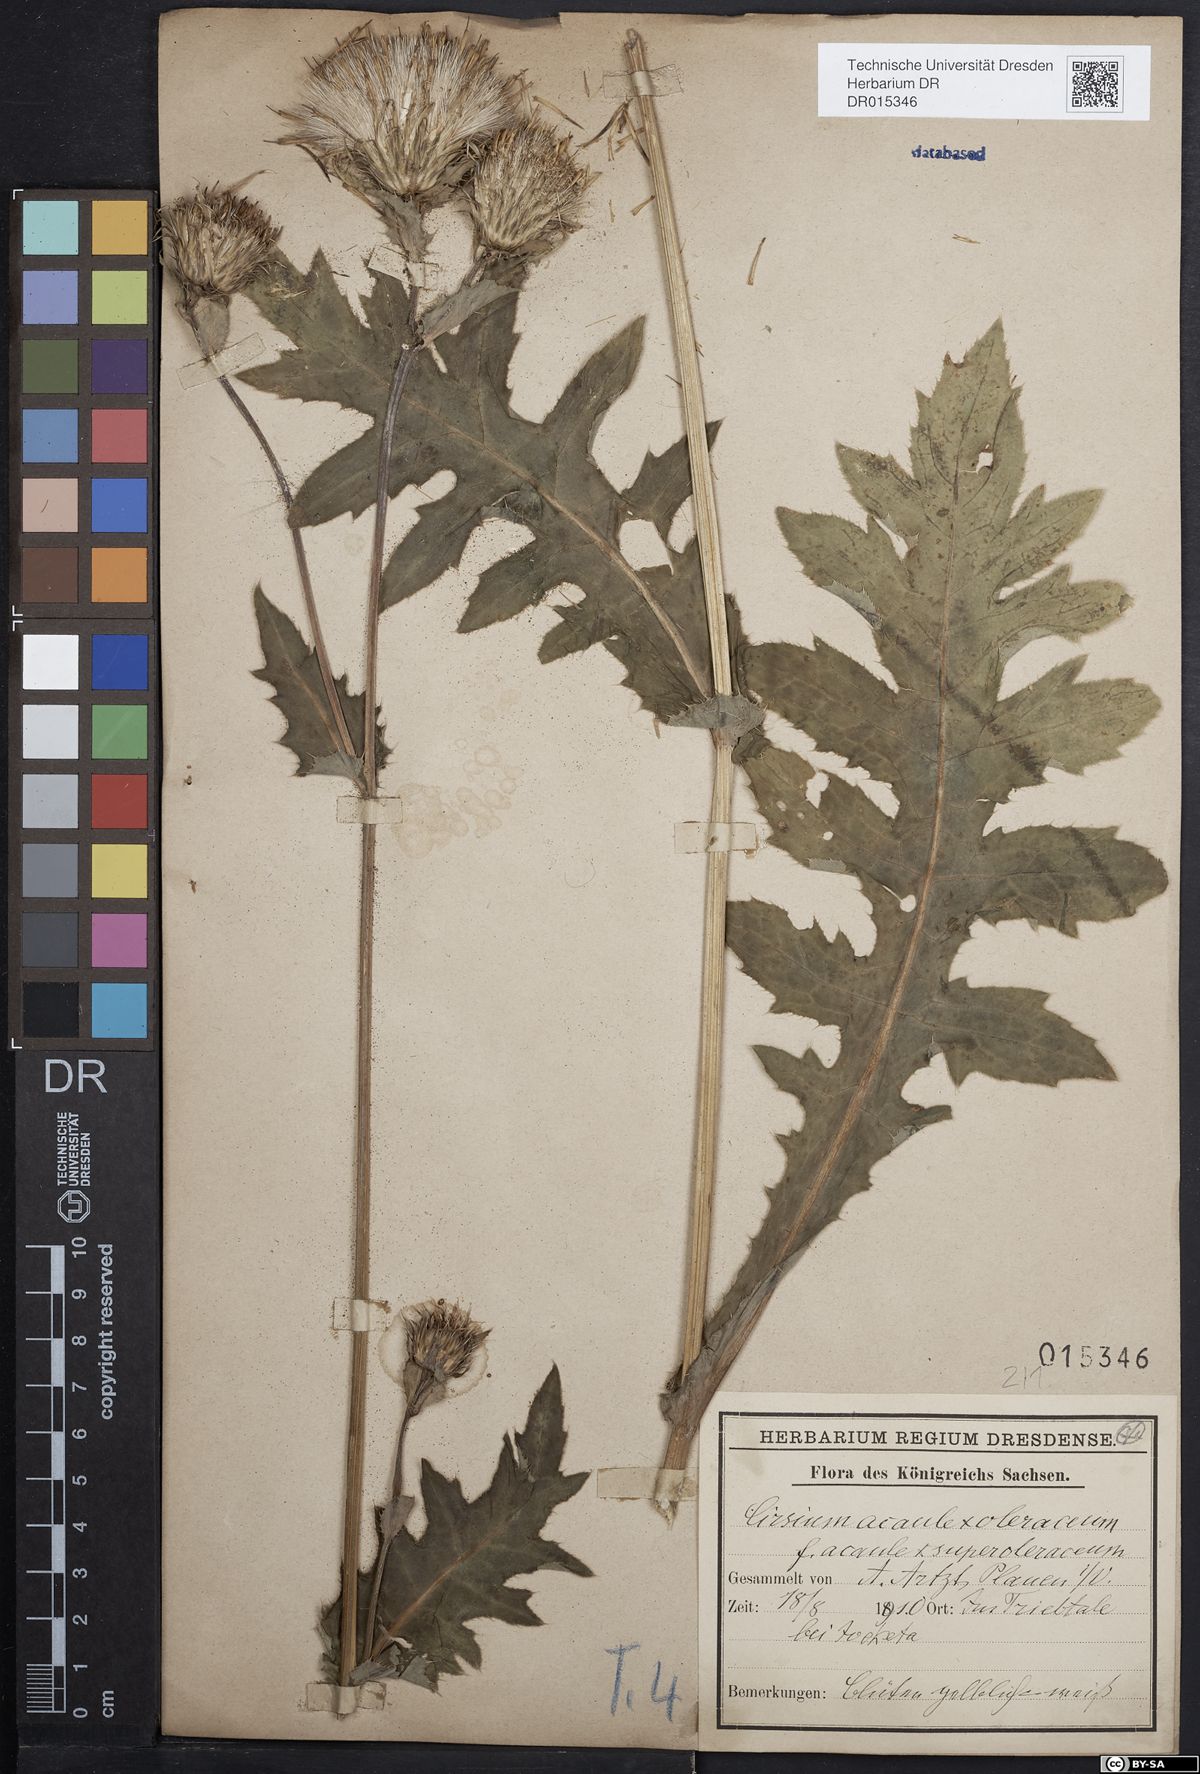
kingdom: Plantae
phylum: Tracheophyta
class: Magnoliopsida
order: Asterales
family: Asteraceae
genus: Cirsium
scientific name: Cirsium rigens
